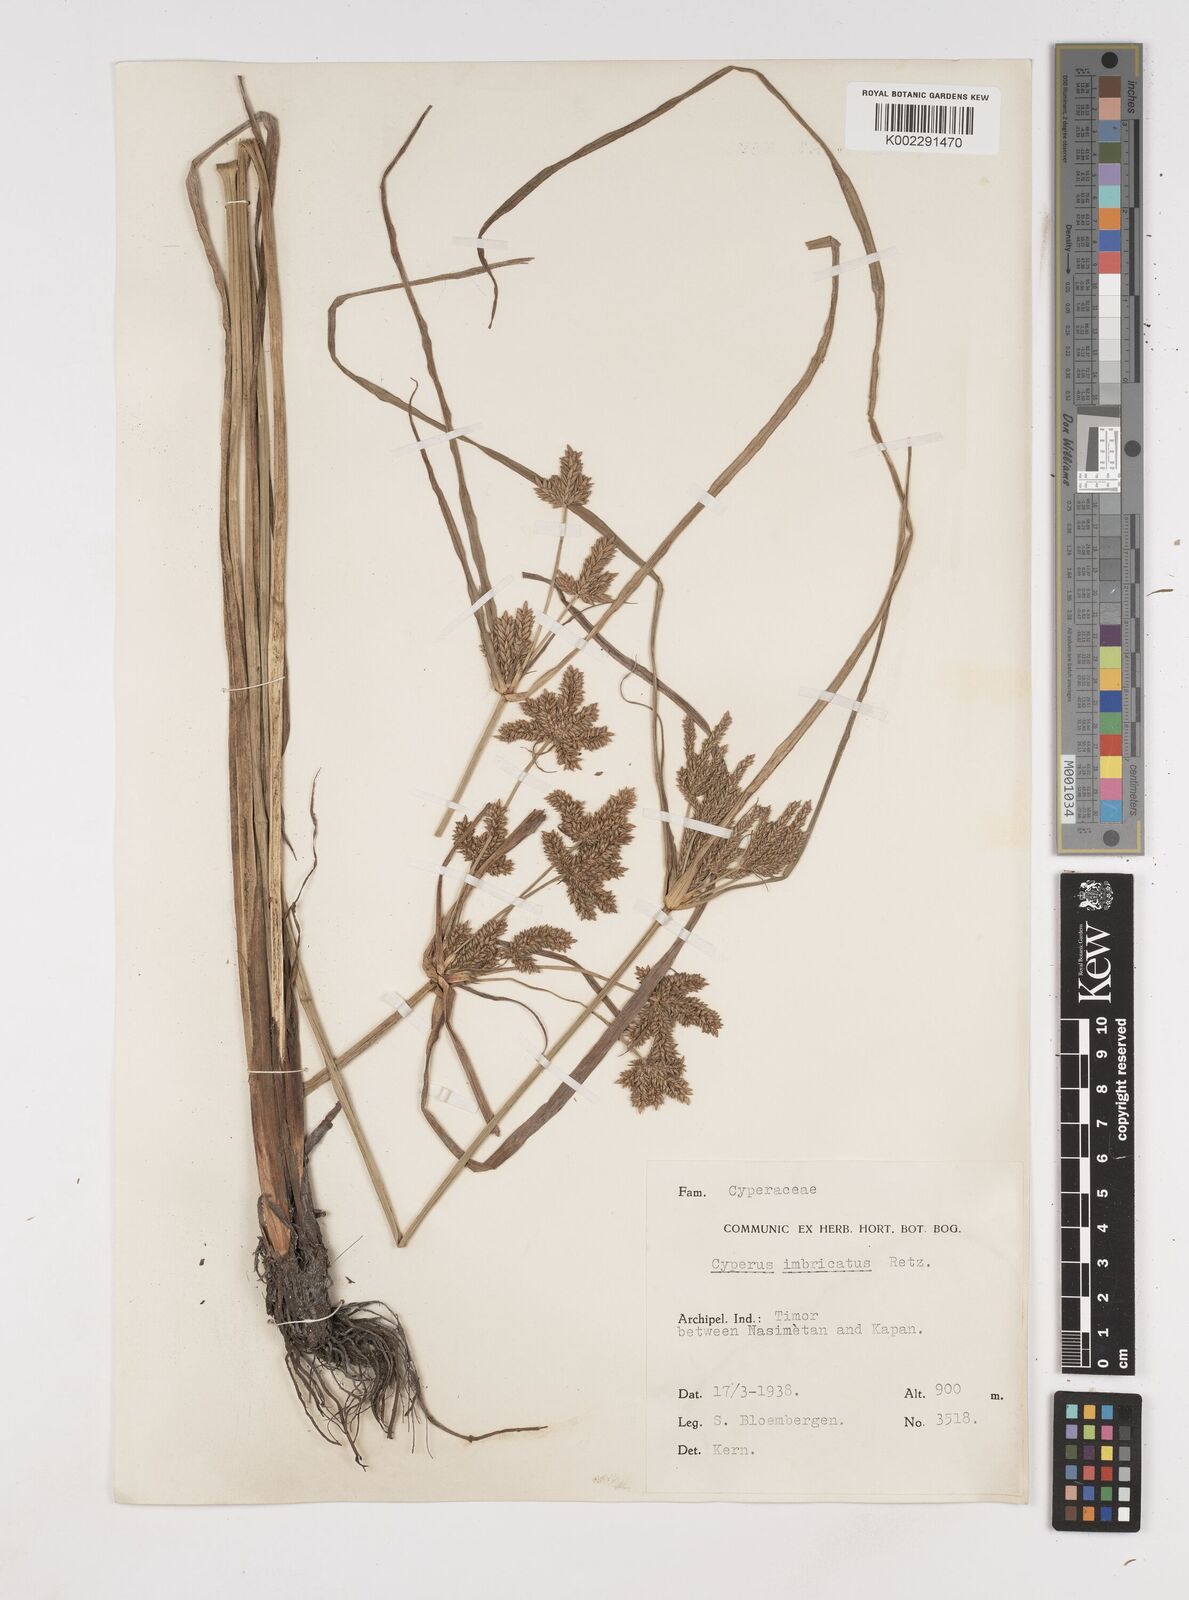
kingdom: Plantae
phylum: Tracheophyta
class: Liliopsida
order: Poales
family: Cyperaceae
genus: Cyperus
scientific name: Cyperus imbricatus
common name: Shingle flatsedge
